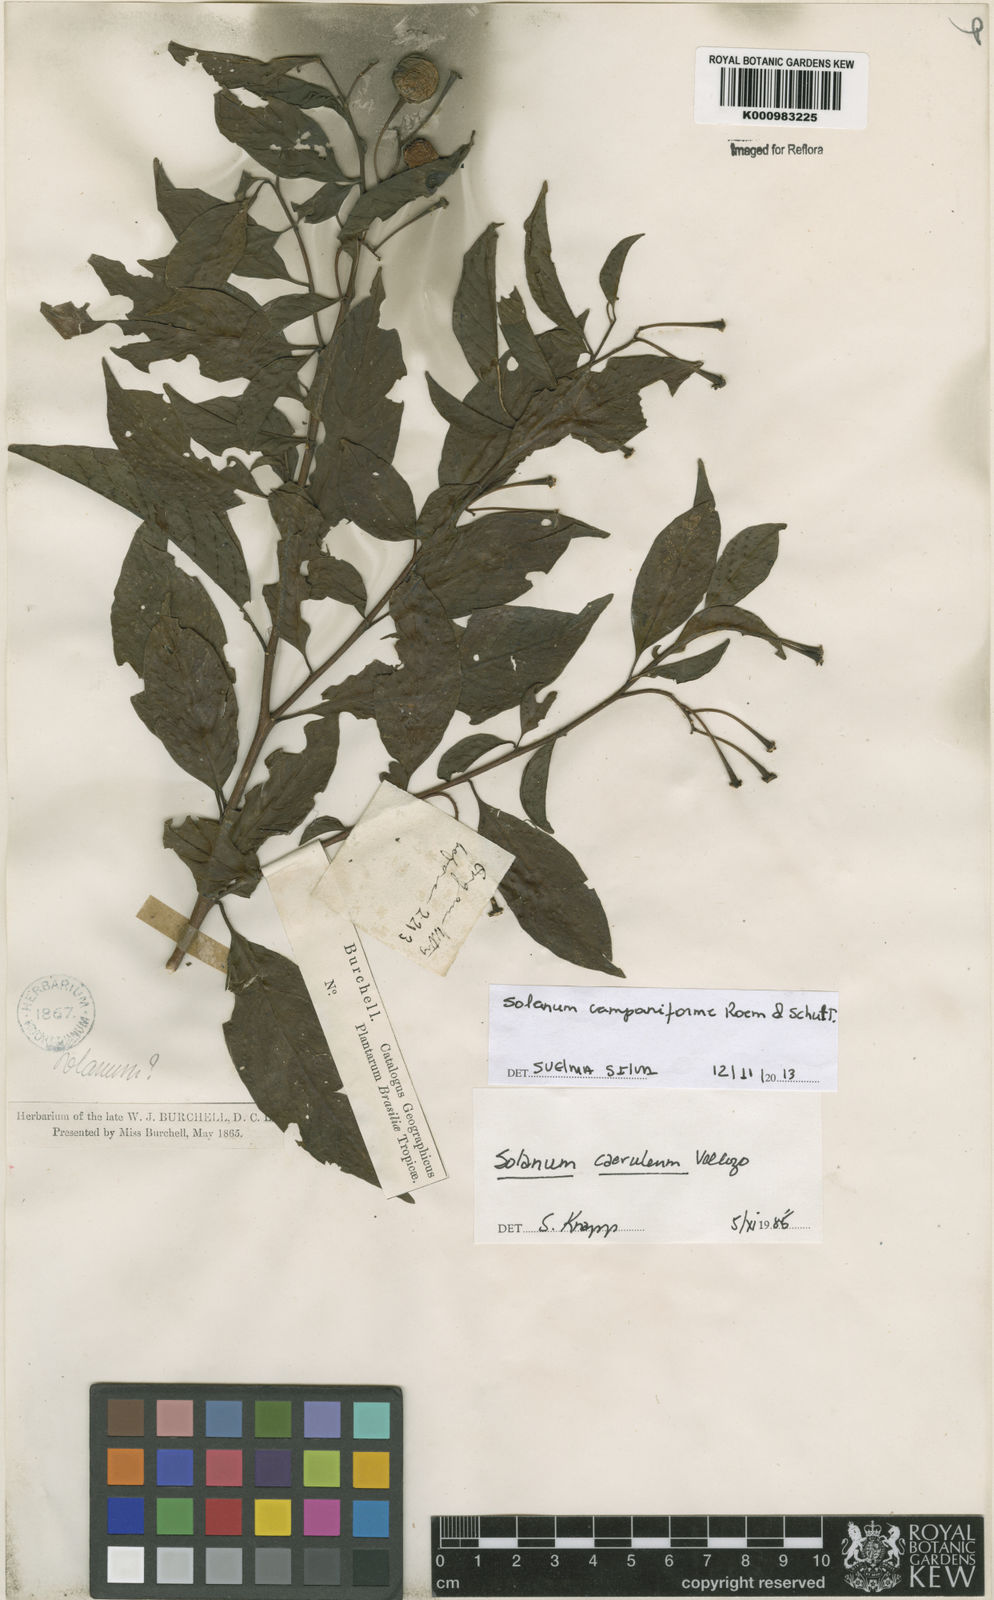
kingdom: Plantae
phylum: Tracheophyta
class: Magnoliopsida
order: Solanales
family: Solanaceae
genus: Solanum
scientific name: Solanum campaniforme
